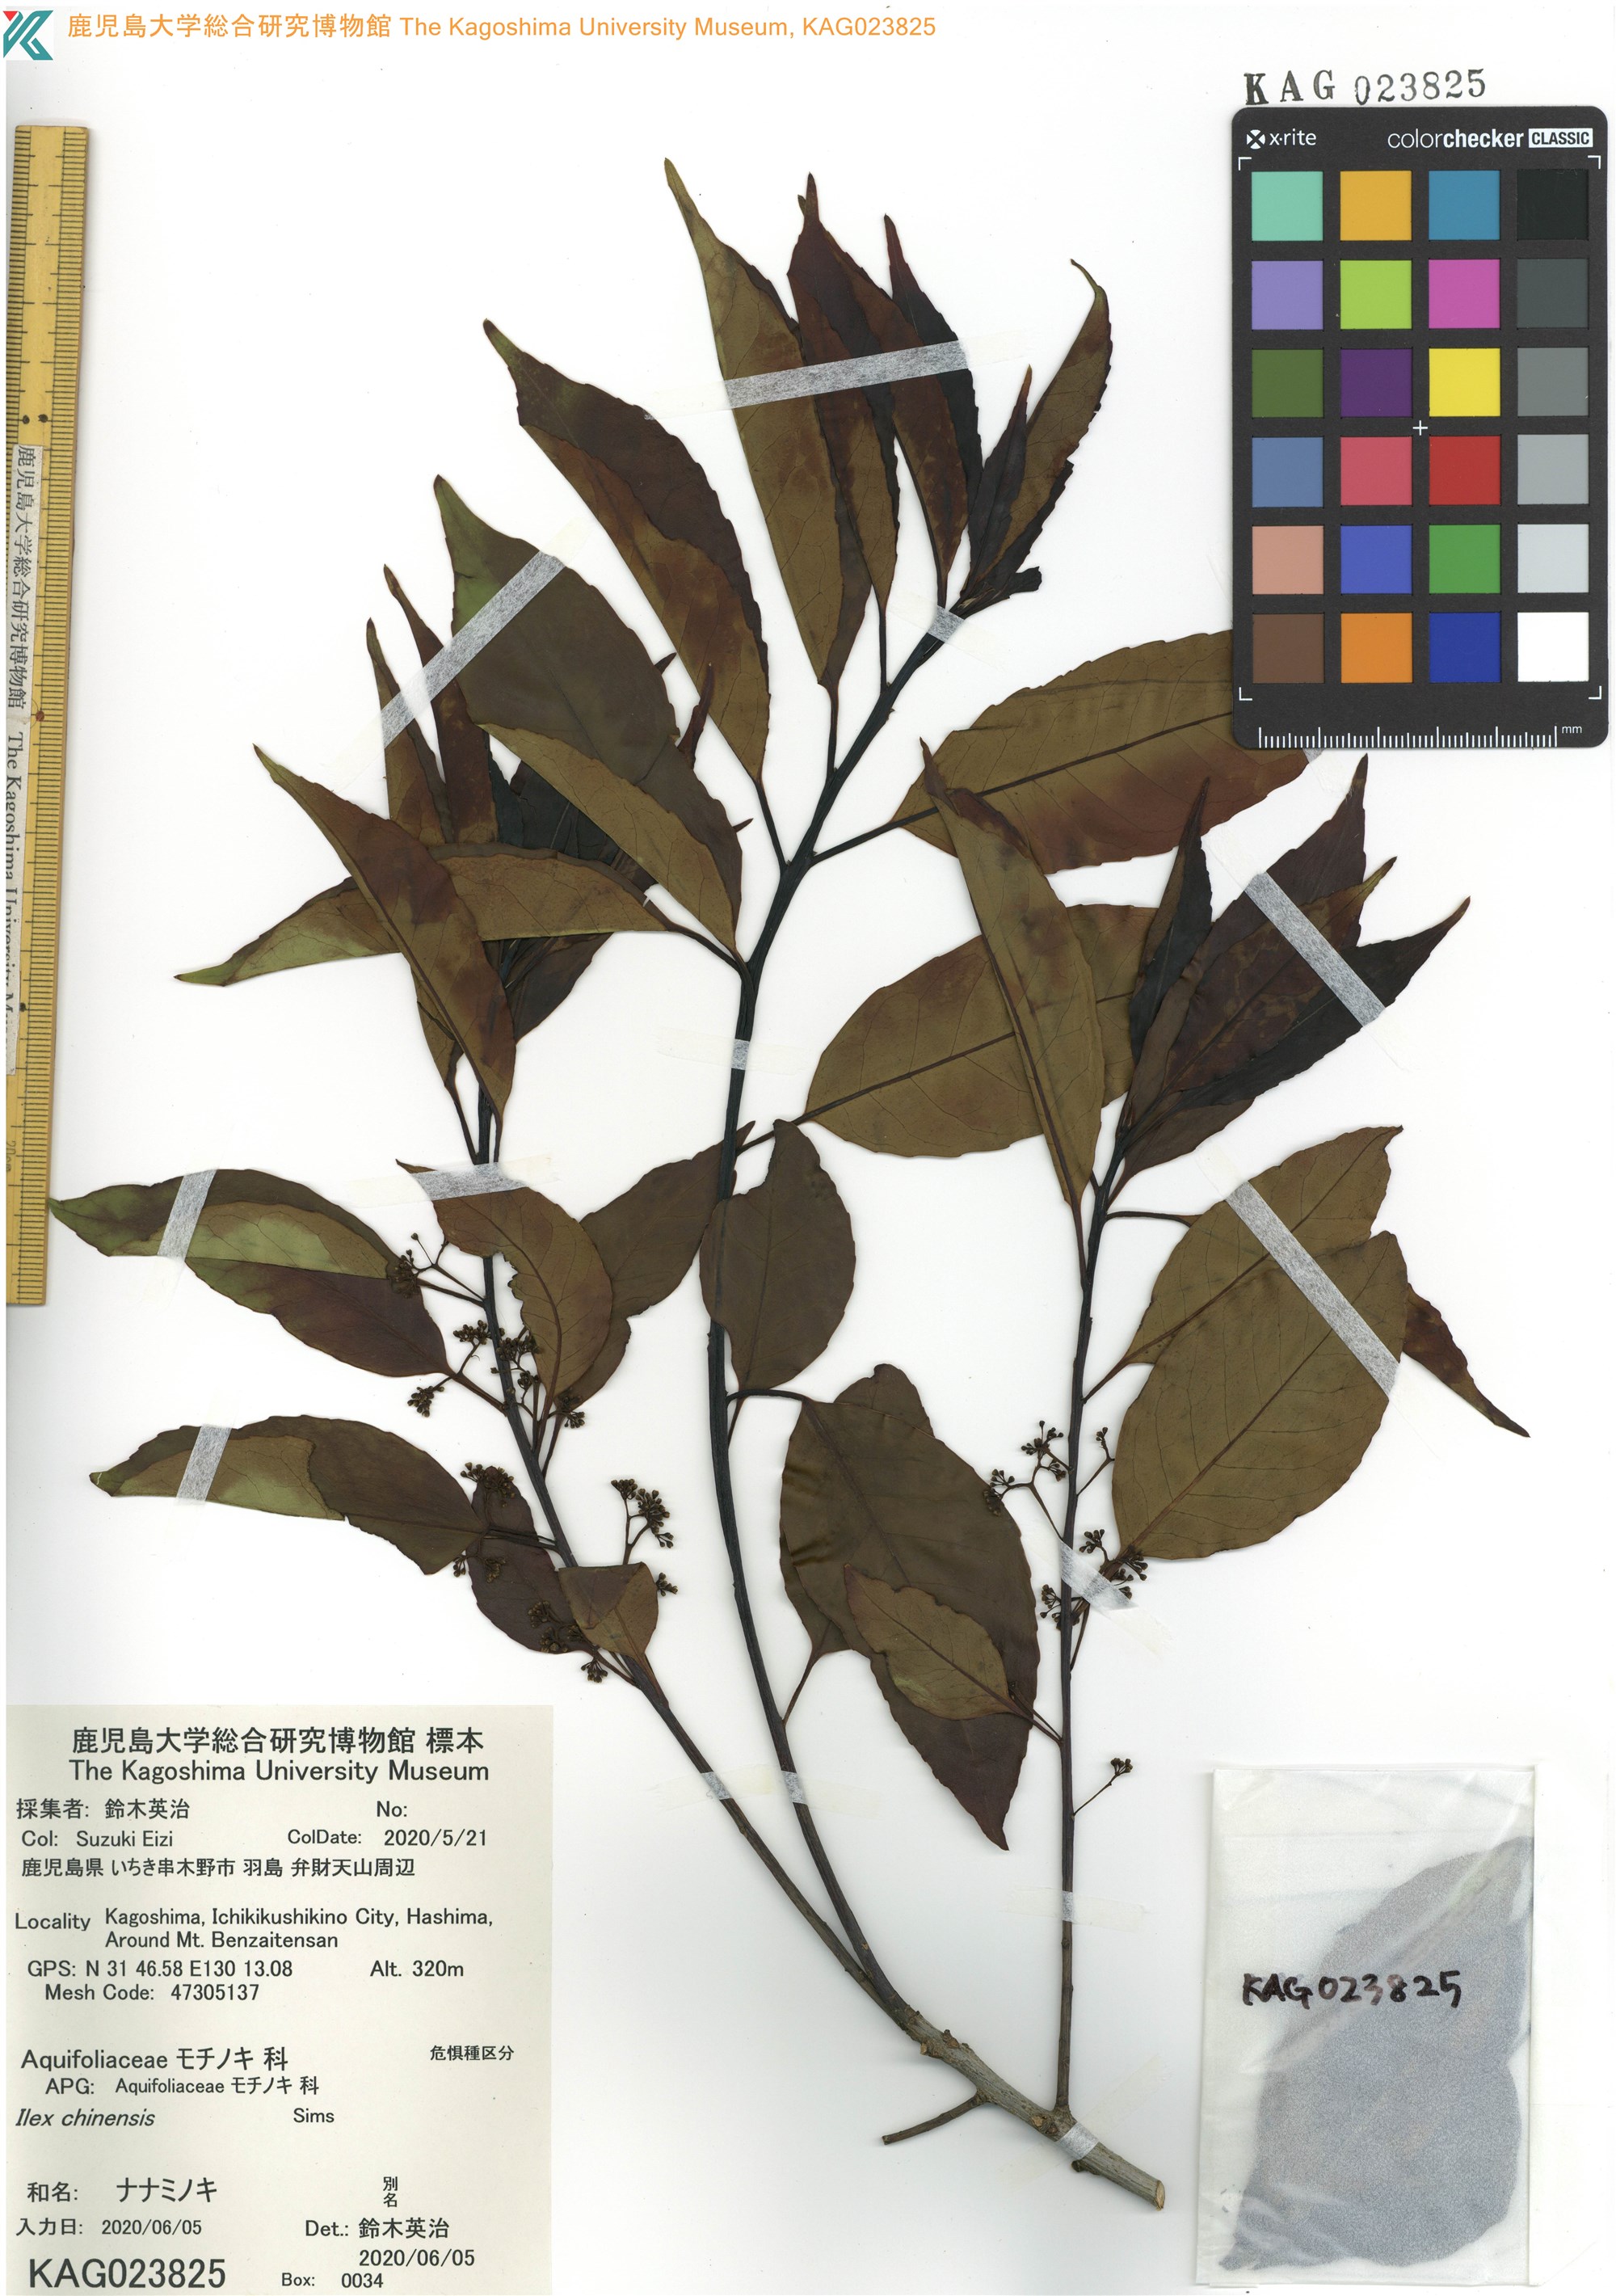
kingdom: Plantae
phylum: Tracheophyta
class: Magnoliopsida
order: Aquifoliales
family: Aquifoliaceae
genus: Ilex
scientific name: Ilex chinensis
